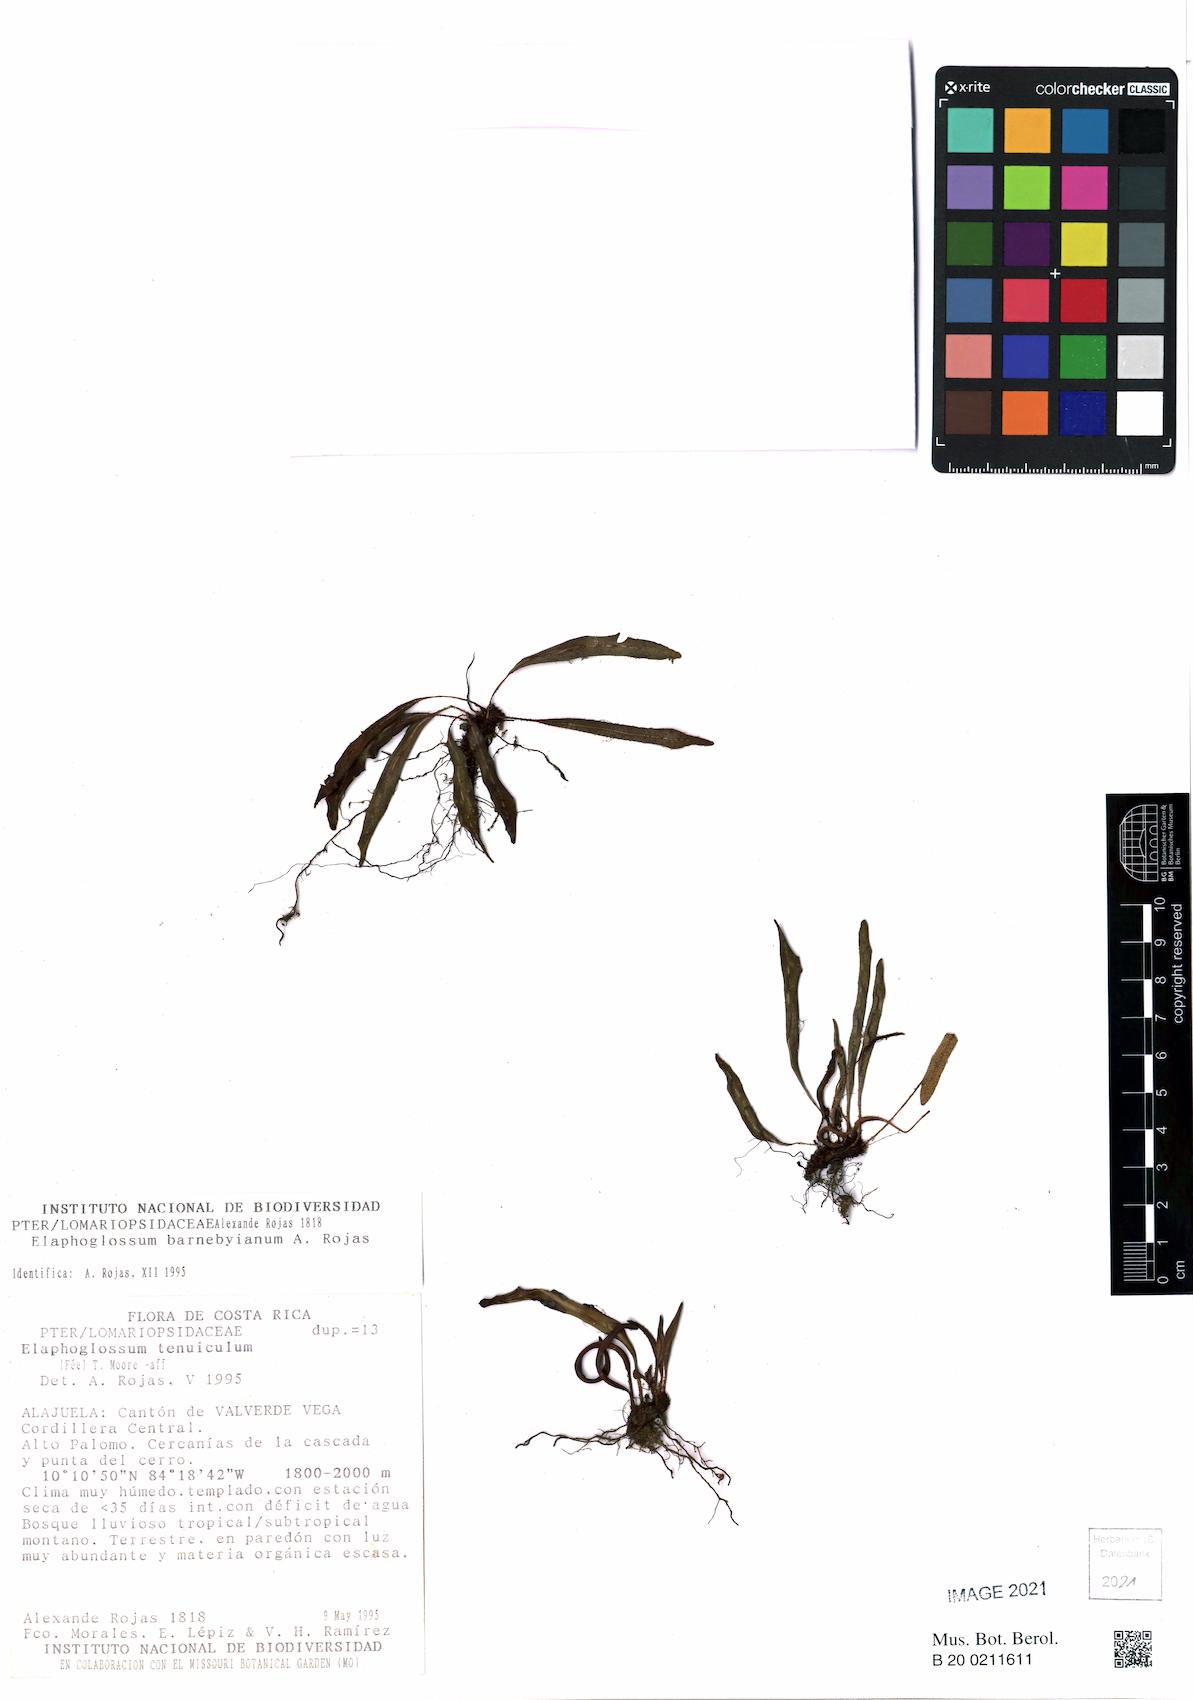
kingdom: Plantae
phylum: Tracheophyta
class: Polypodiopsida
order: Polypodiales
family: Dryopteridaceae
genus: Elaphoglossum
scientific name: Elaphoglossum tenuiculum
